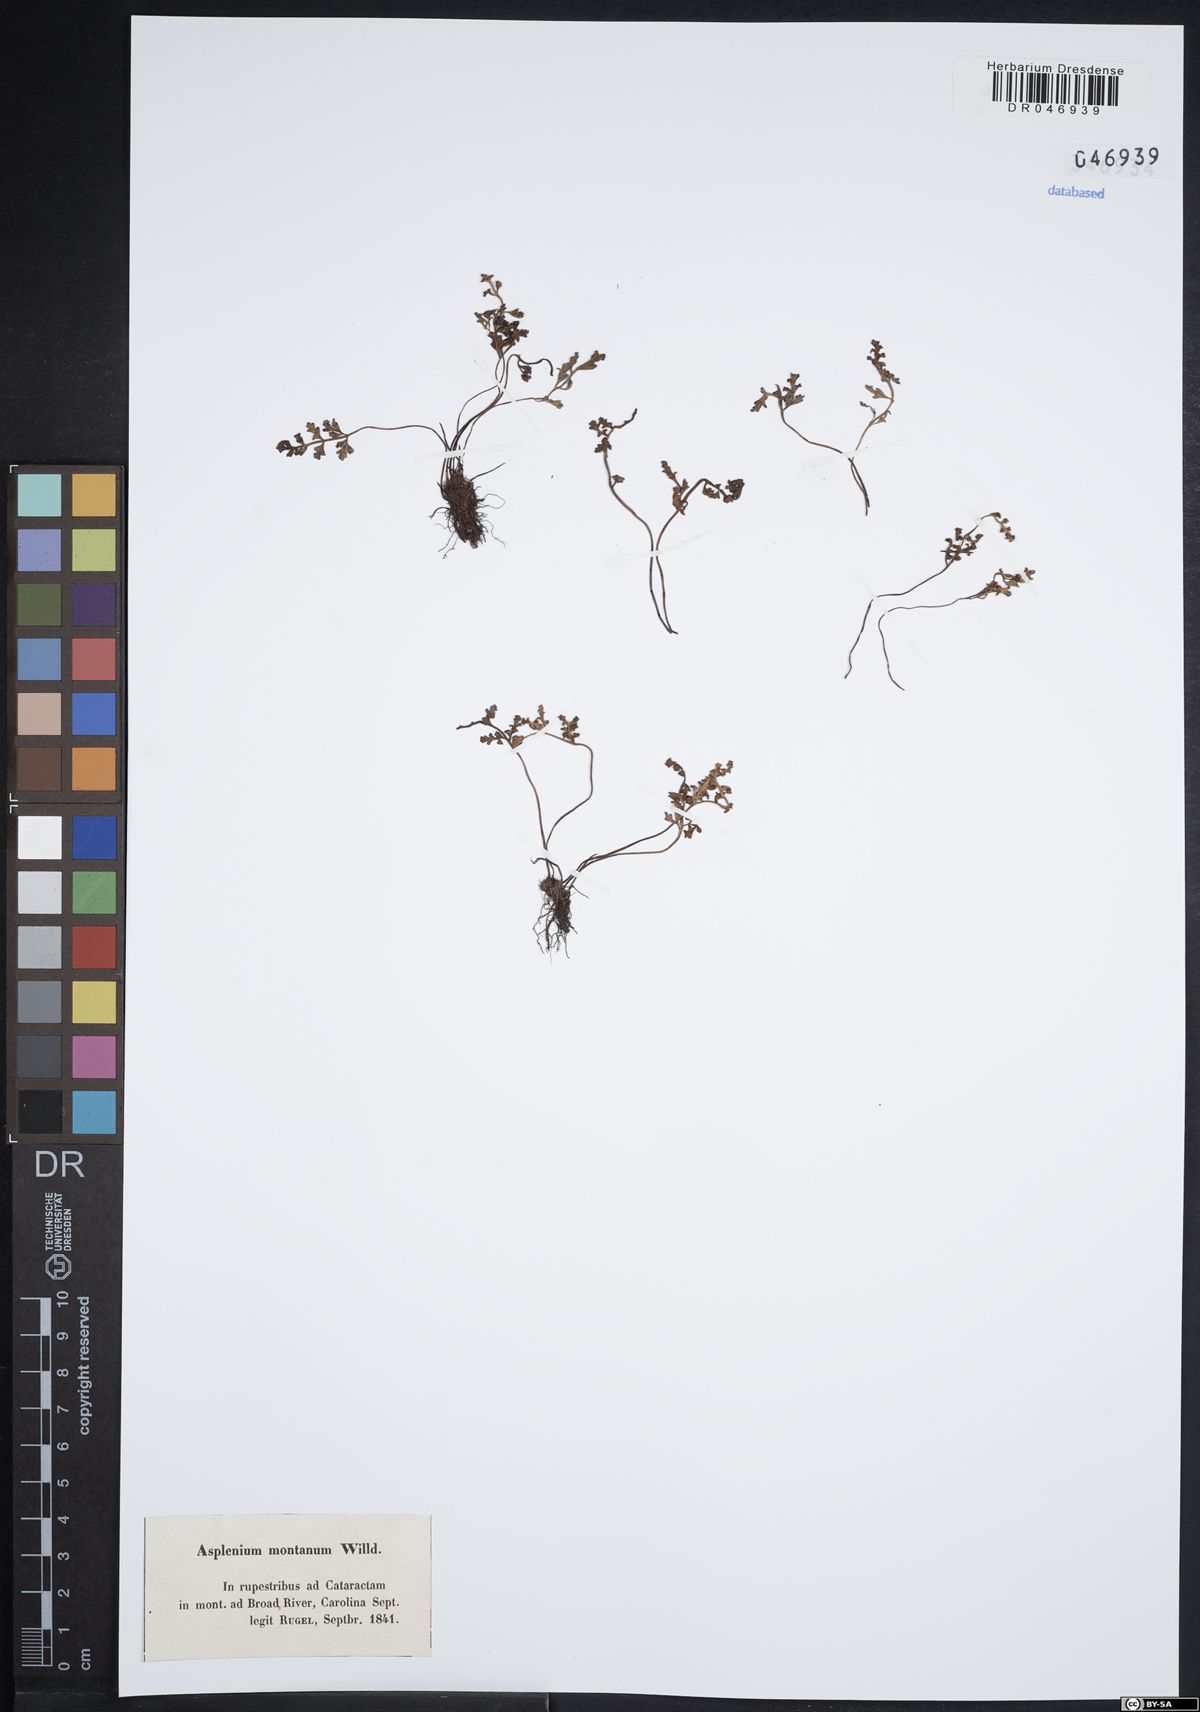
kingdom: Plantae
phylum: Tracheophyta
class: Polypodiopsida
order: Polypodiales
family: Aspleniaceae
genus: Asplenium
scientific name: Asplenium montanum
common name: Mountain spleenwort
